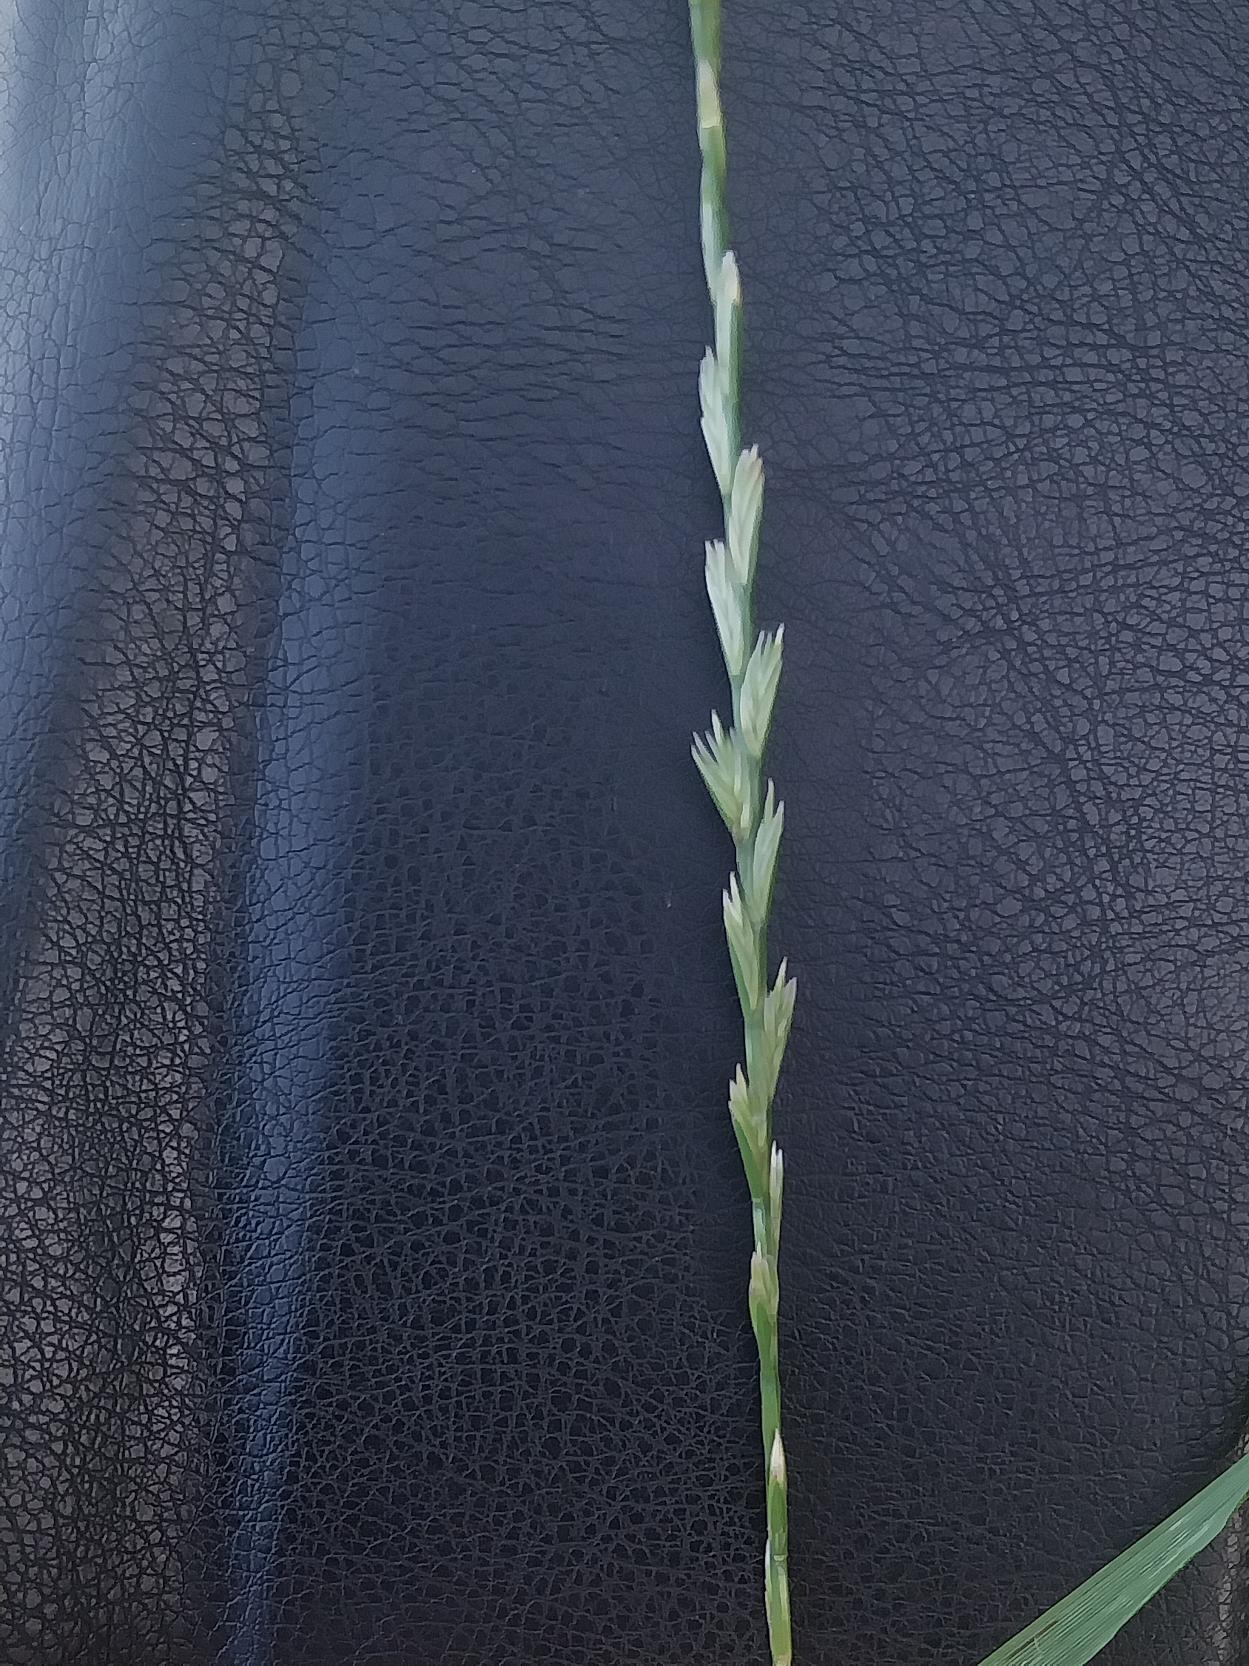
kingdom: Plantae
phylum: Tracheophyta
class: Liliopsida
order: Poales
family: Poaceae
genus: Lolium
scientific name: Lolium perenne
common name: Almindelig rajgræs
